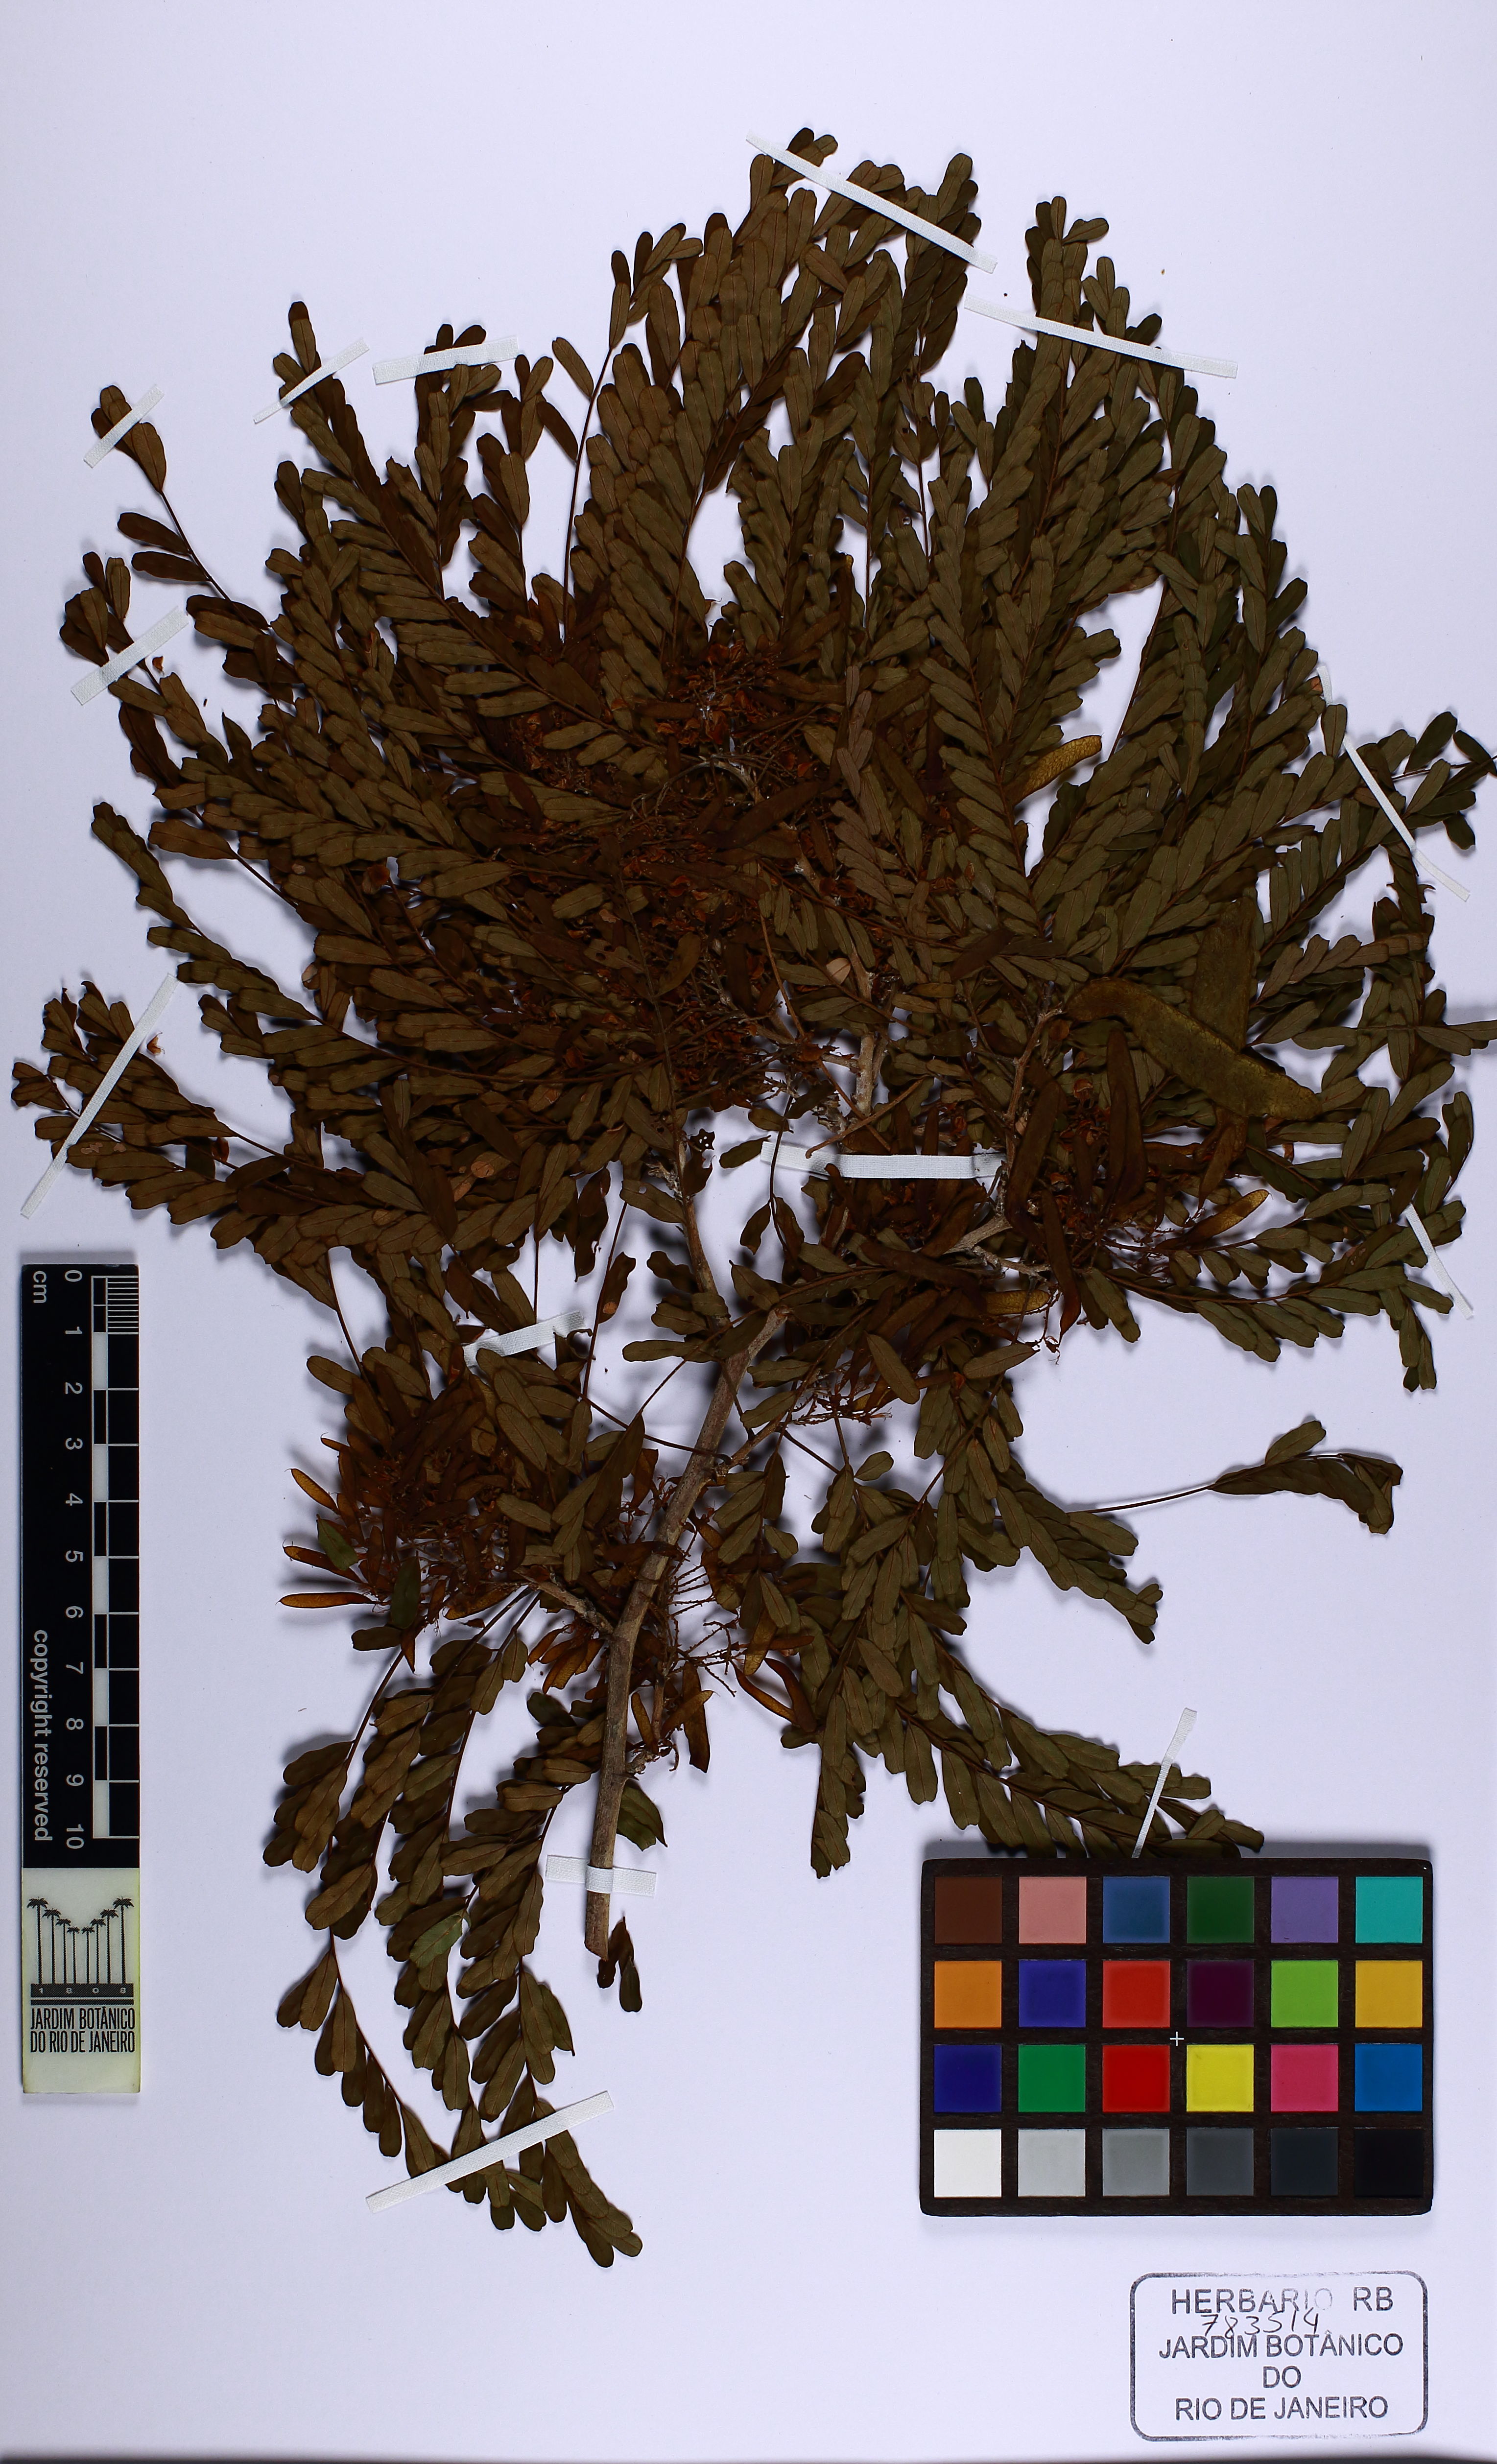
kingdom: Plantae
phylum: Tracheophyta
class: Magnoliopsida
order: Fabales
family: Fabaceae
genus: Machaerium
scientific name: Machaerium uncinatum
